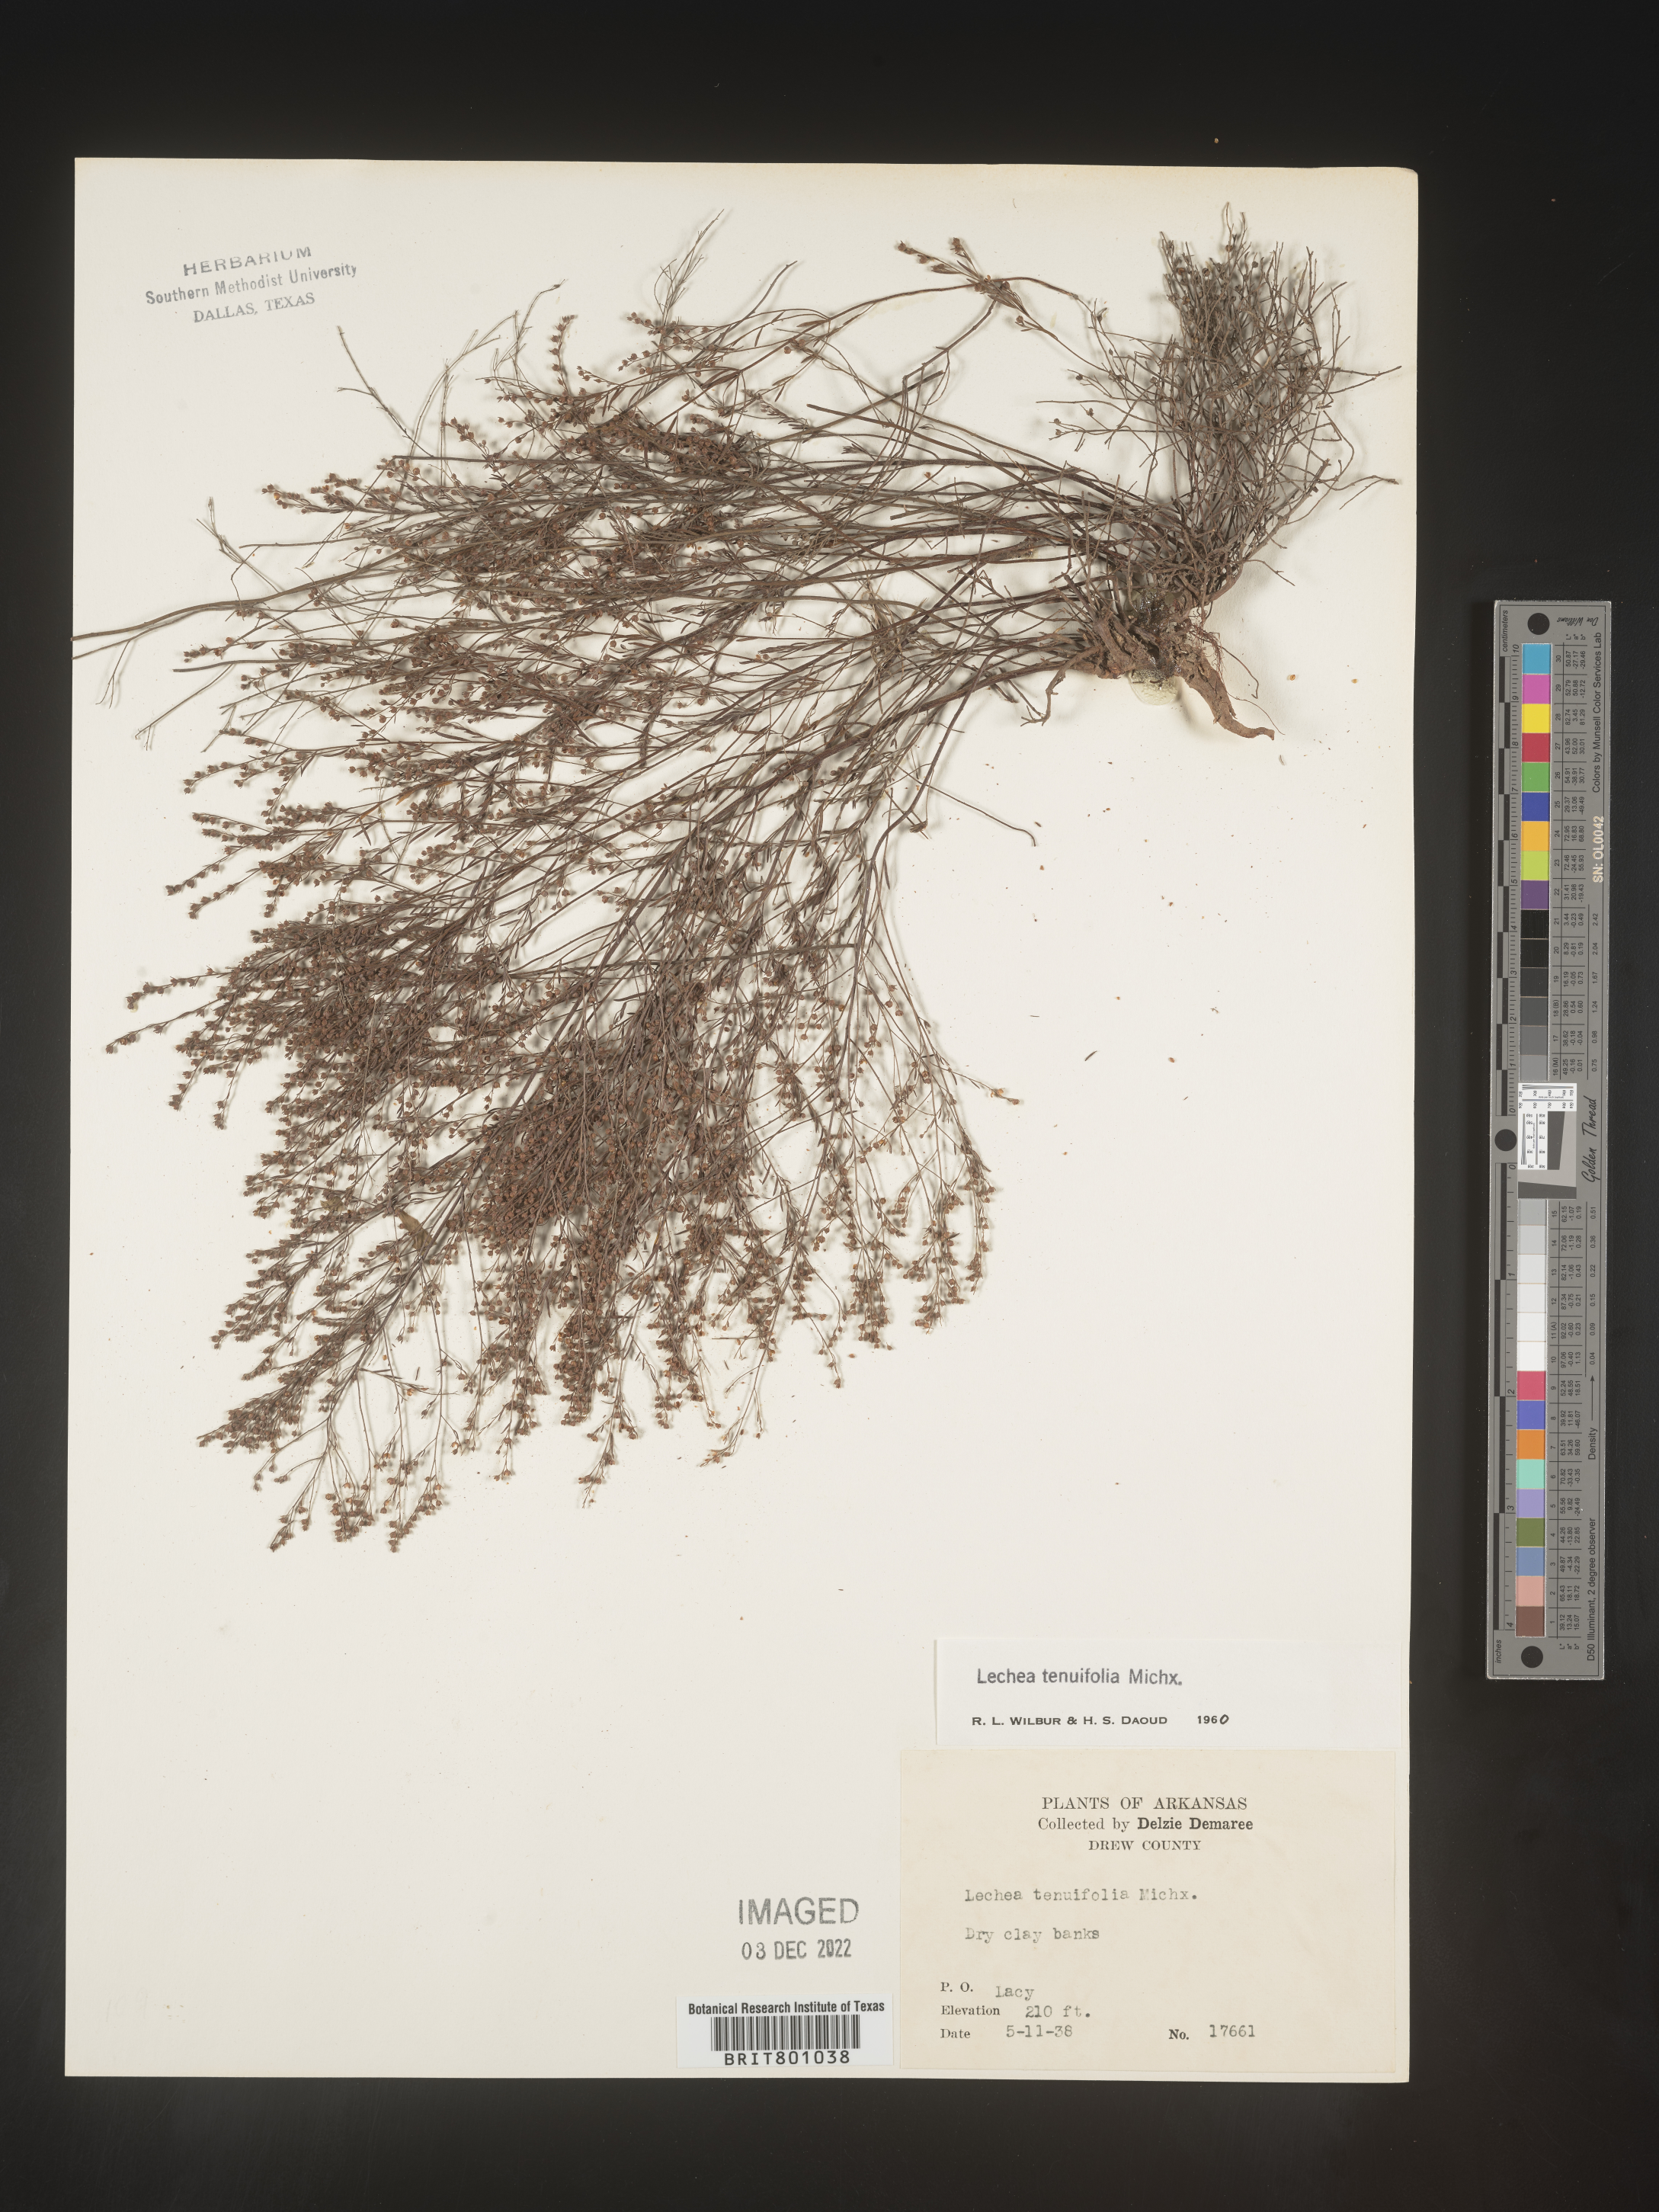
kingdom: Plantae
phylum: Tracheophyta
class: Magnoliopsida
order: Malvales
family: Cistaceae
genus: Lechea
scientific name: Lechea tenuifolia
